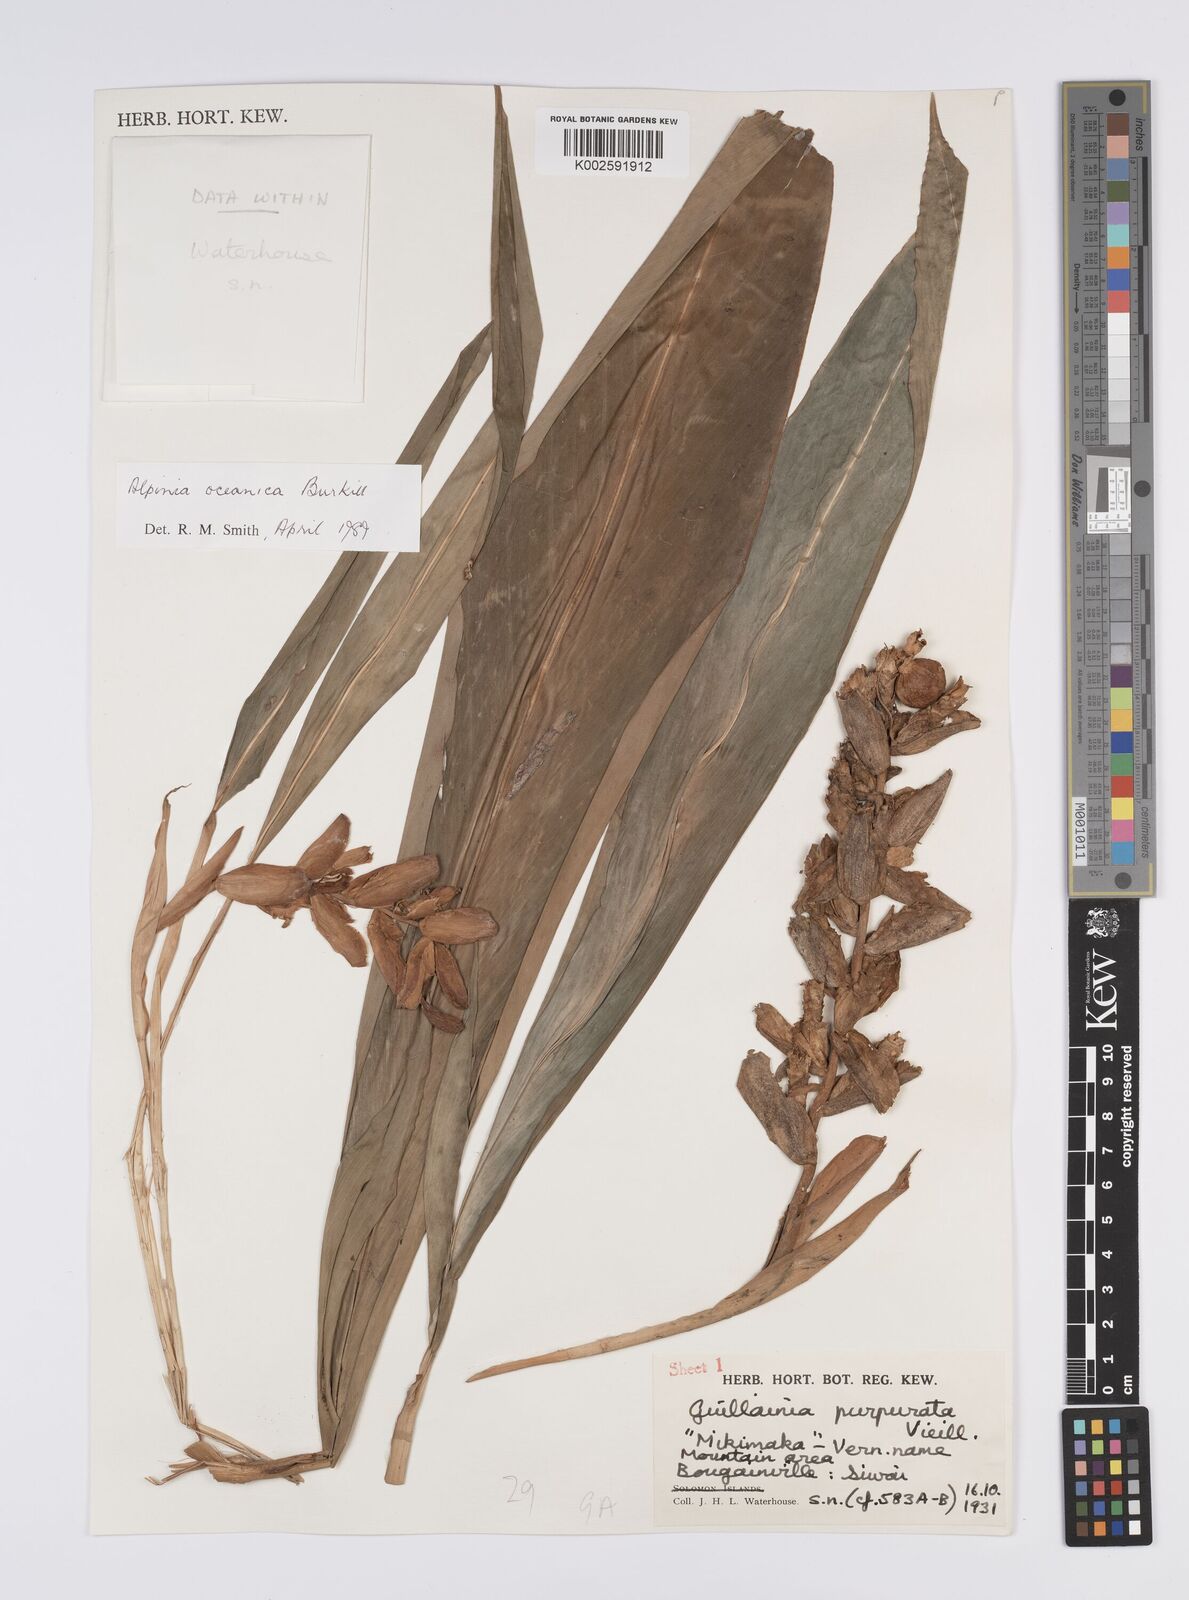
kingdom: Plantae
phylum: Tracheophyta
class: Liliopsida
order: Zingiberales
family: Zingiberaceae
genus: Alpinia
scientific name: Alpinia oceanica
